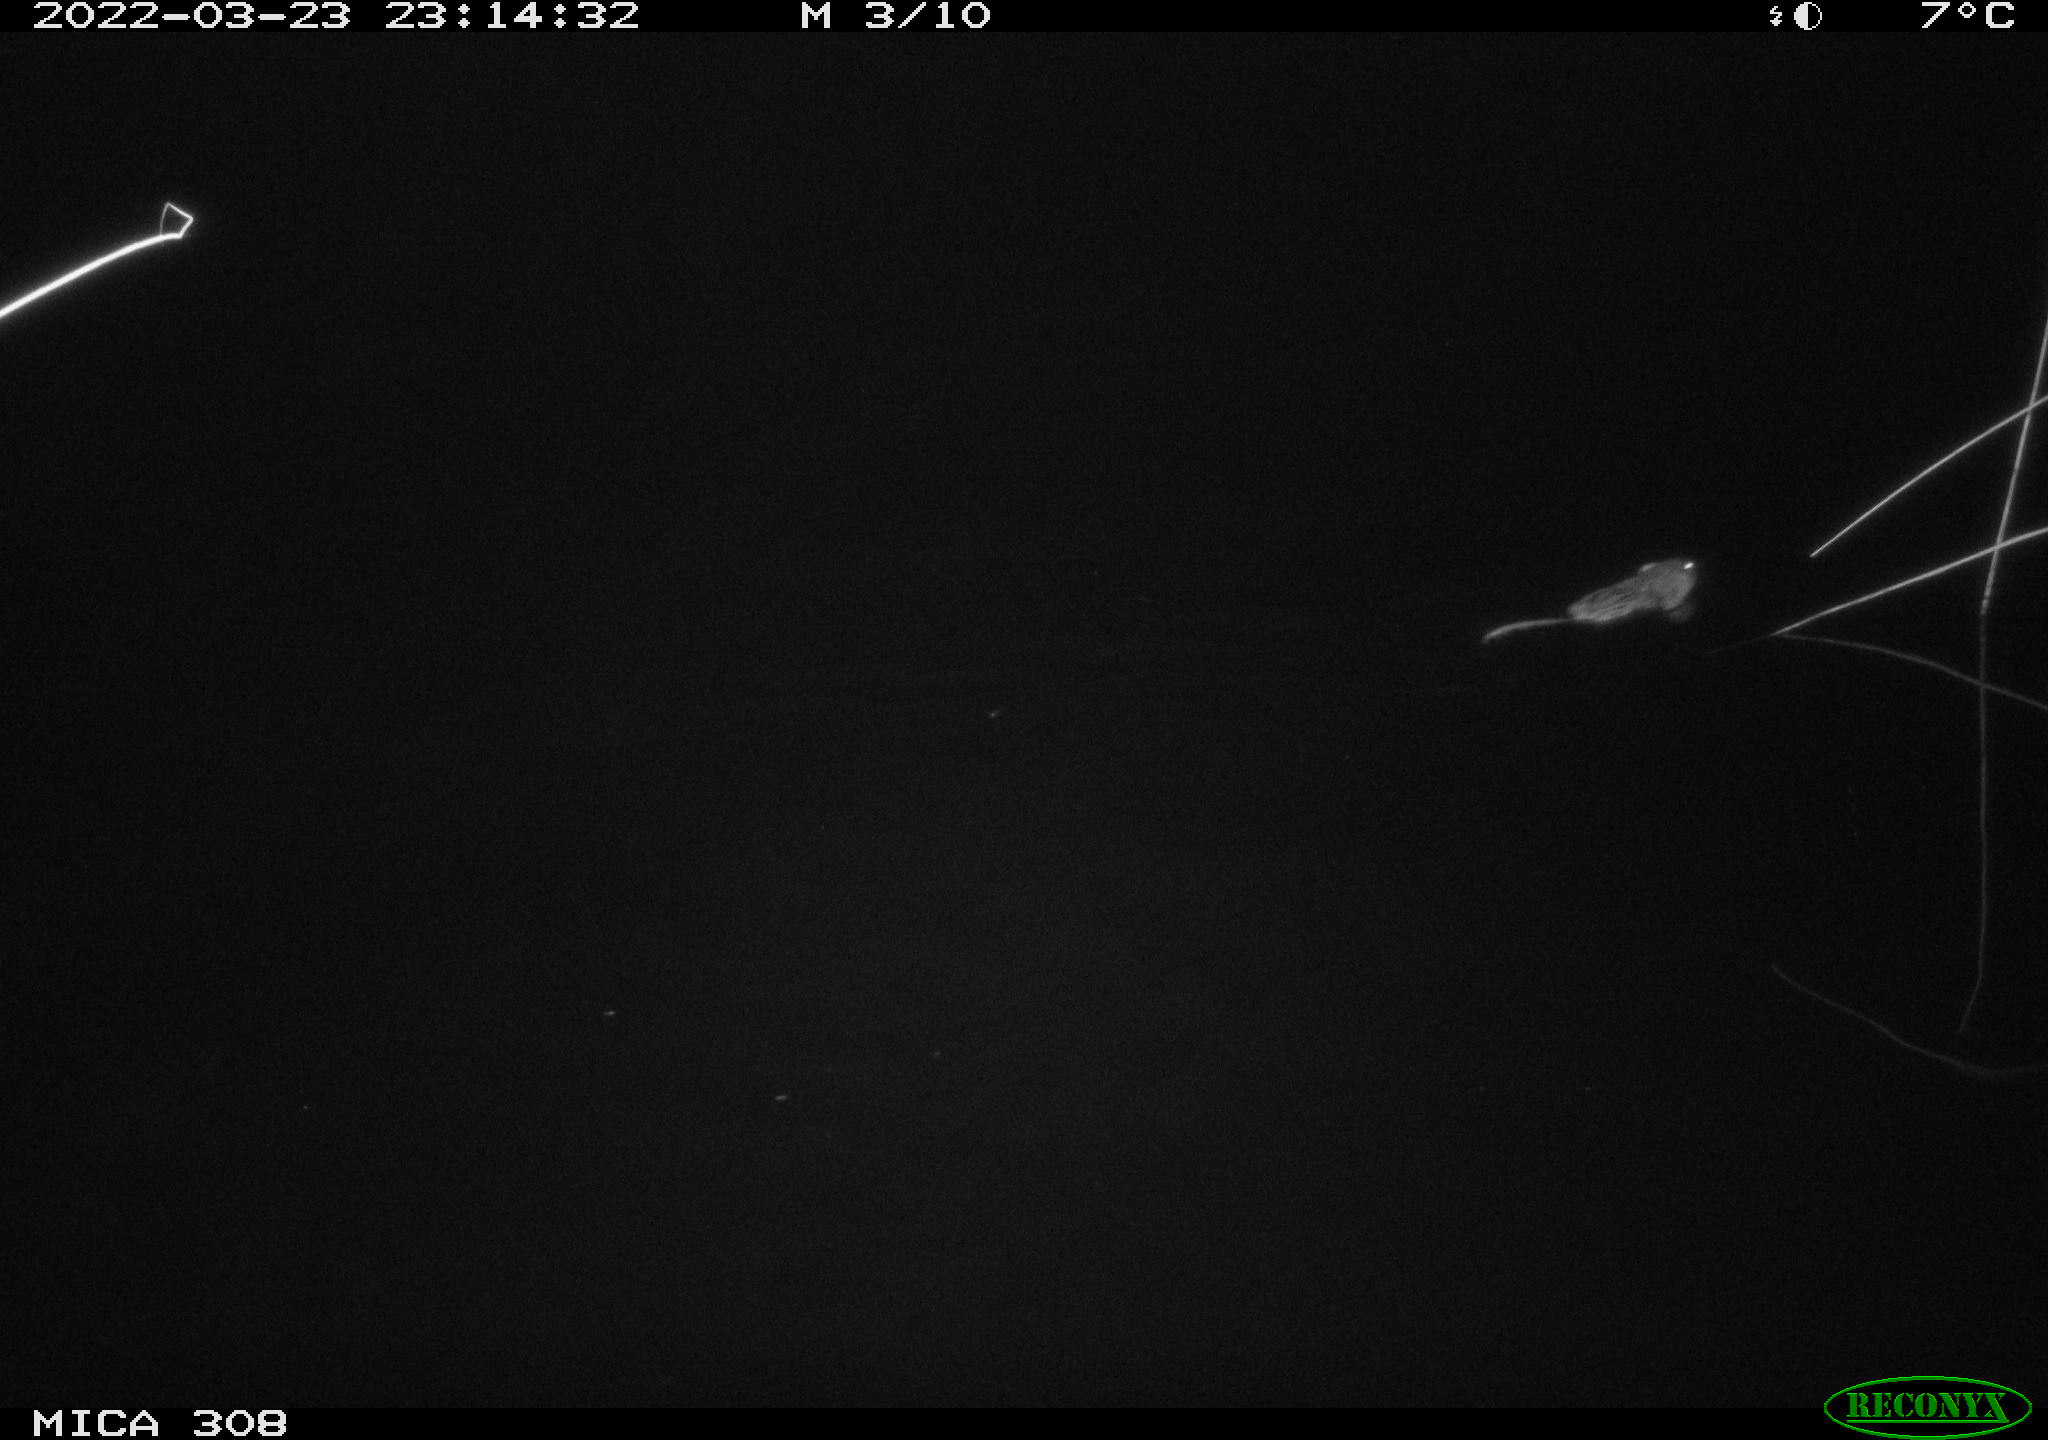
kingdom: Animalia
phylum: Chordata
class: Mammalia
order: Rodentia
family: Cricetidae
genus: Ondatra
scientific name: Ondatra zibethicus
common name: Muskrat
